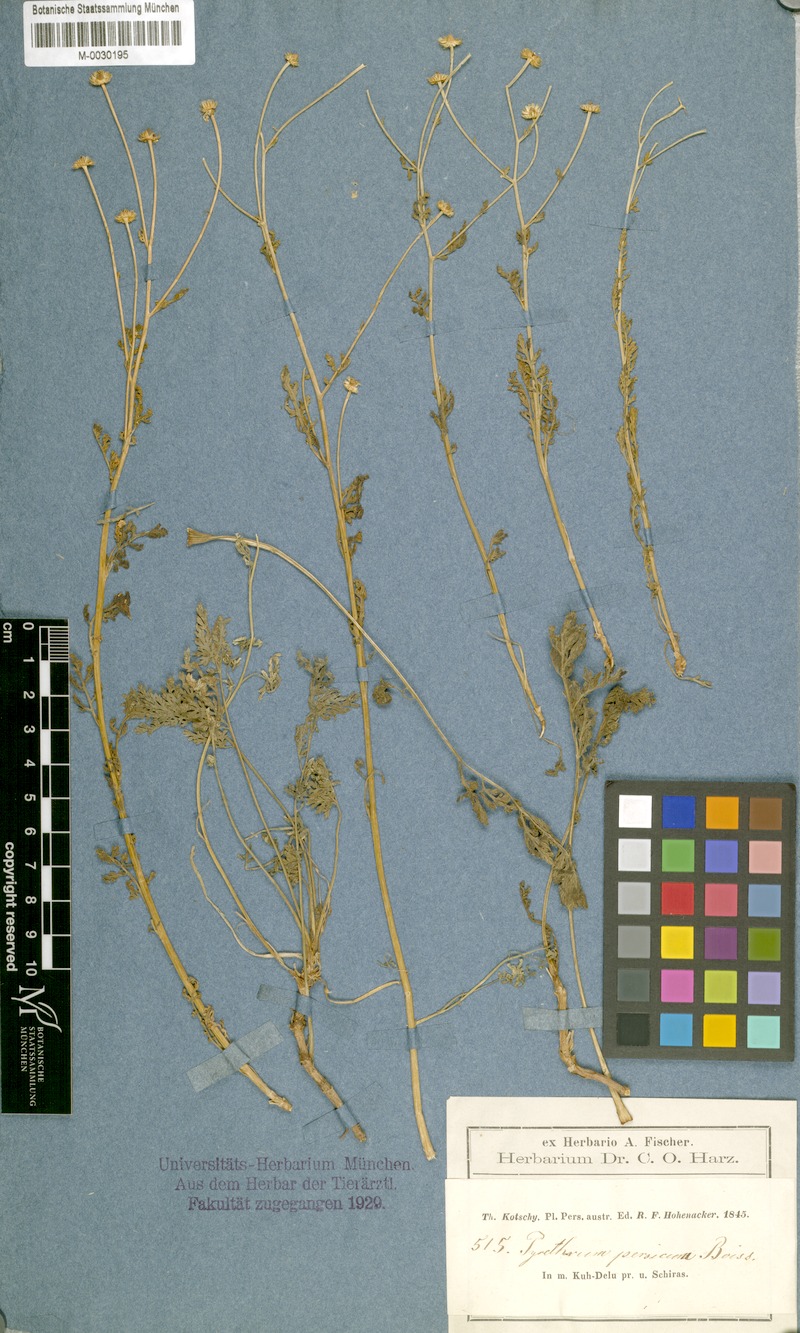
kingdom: Plantae
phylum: Tracheophyta
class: Magnoliopsida
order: Asterales
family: Asteraceae
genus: Tanacetum
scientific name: Tanacetum parthenium
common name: Feverfew
